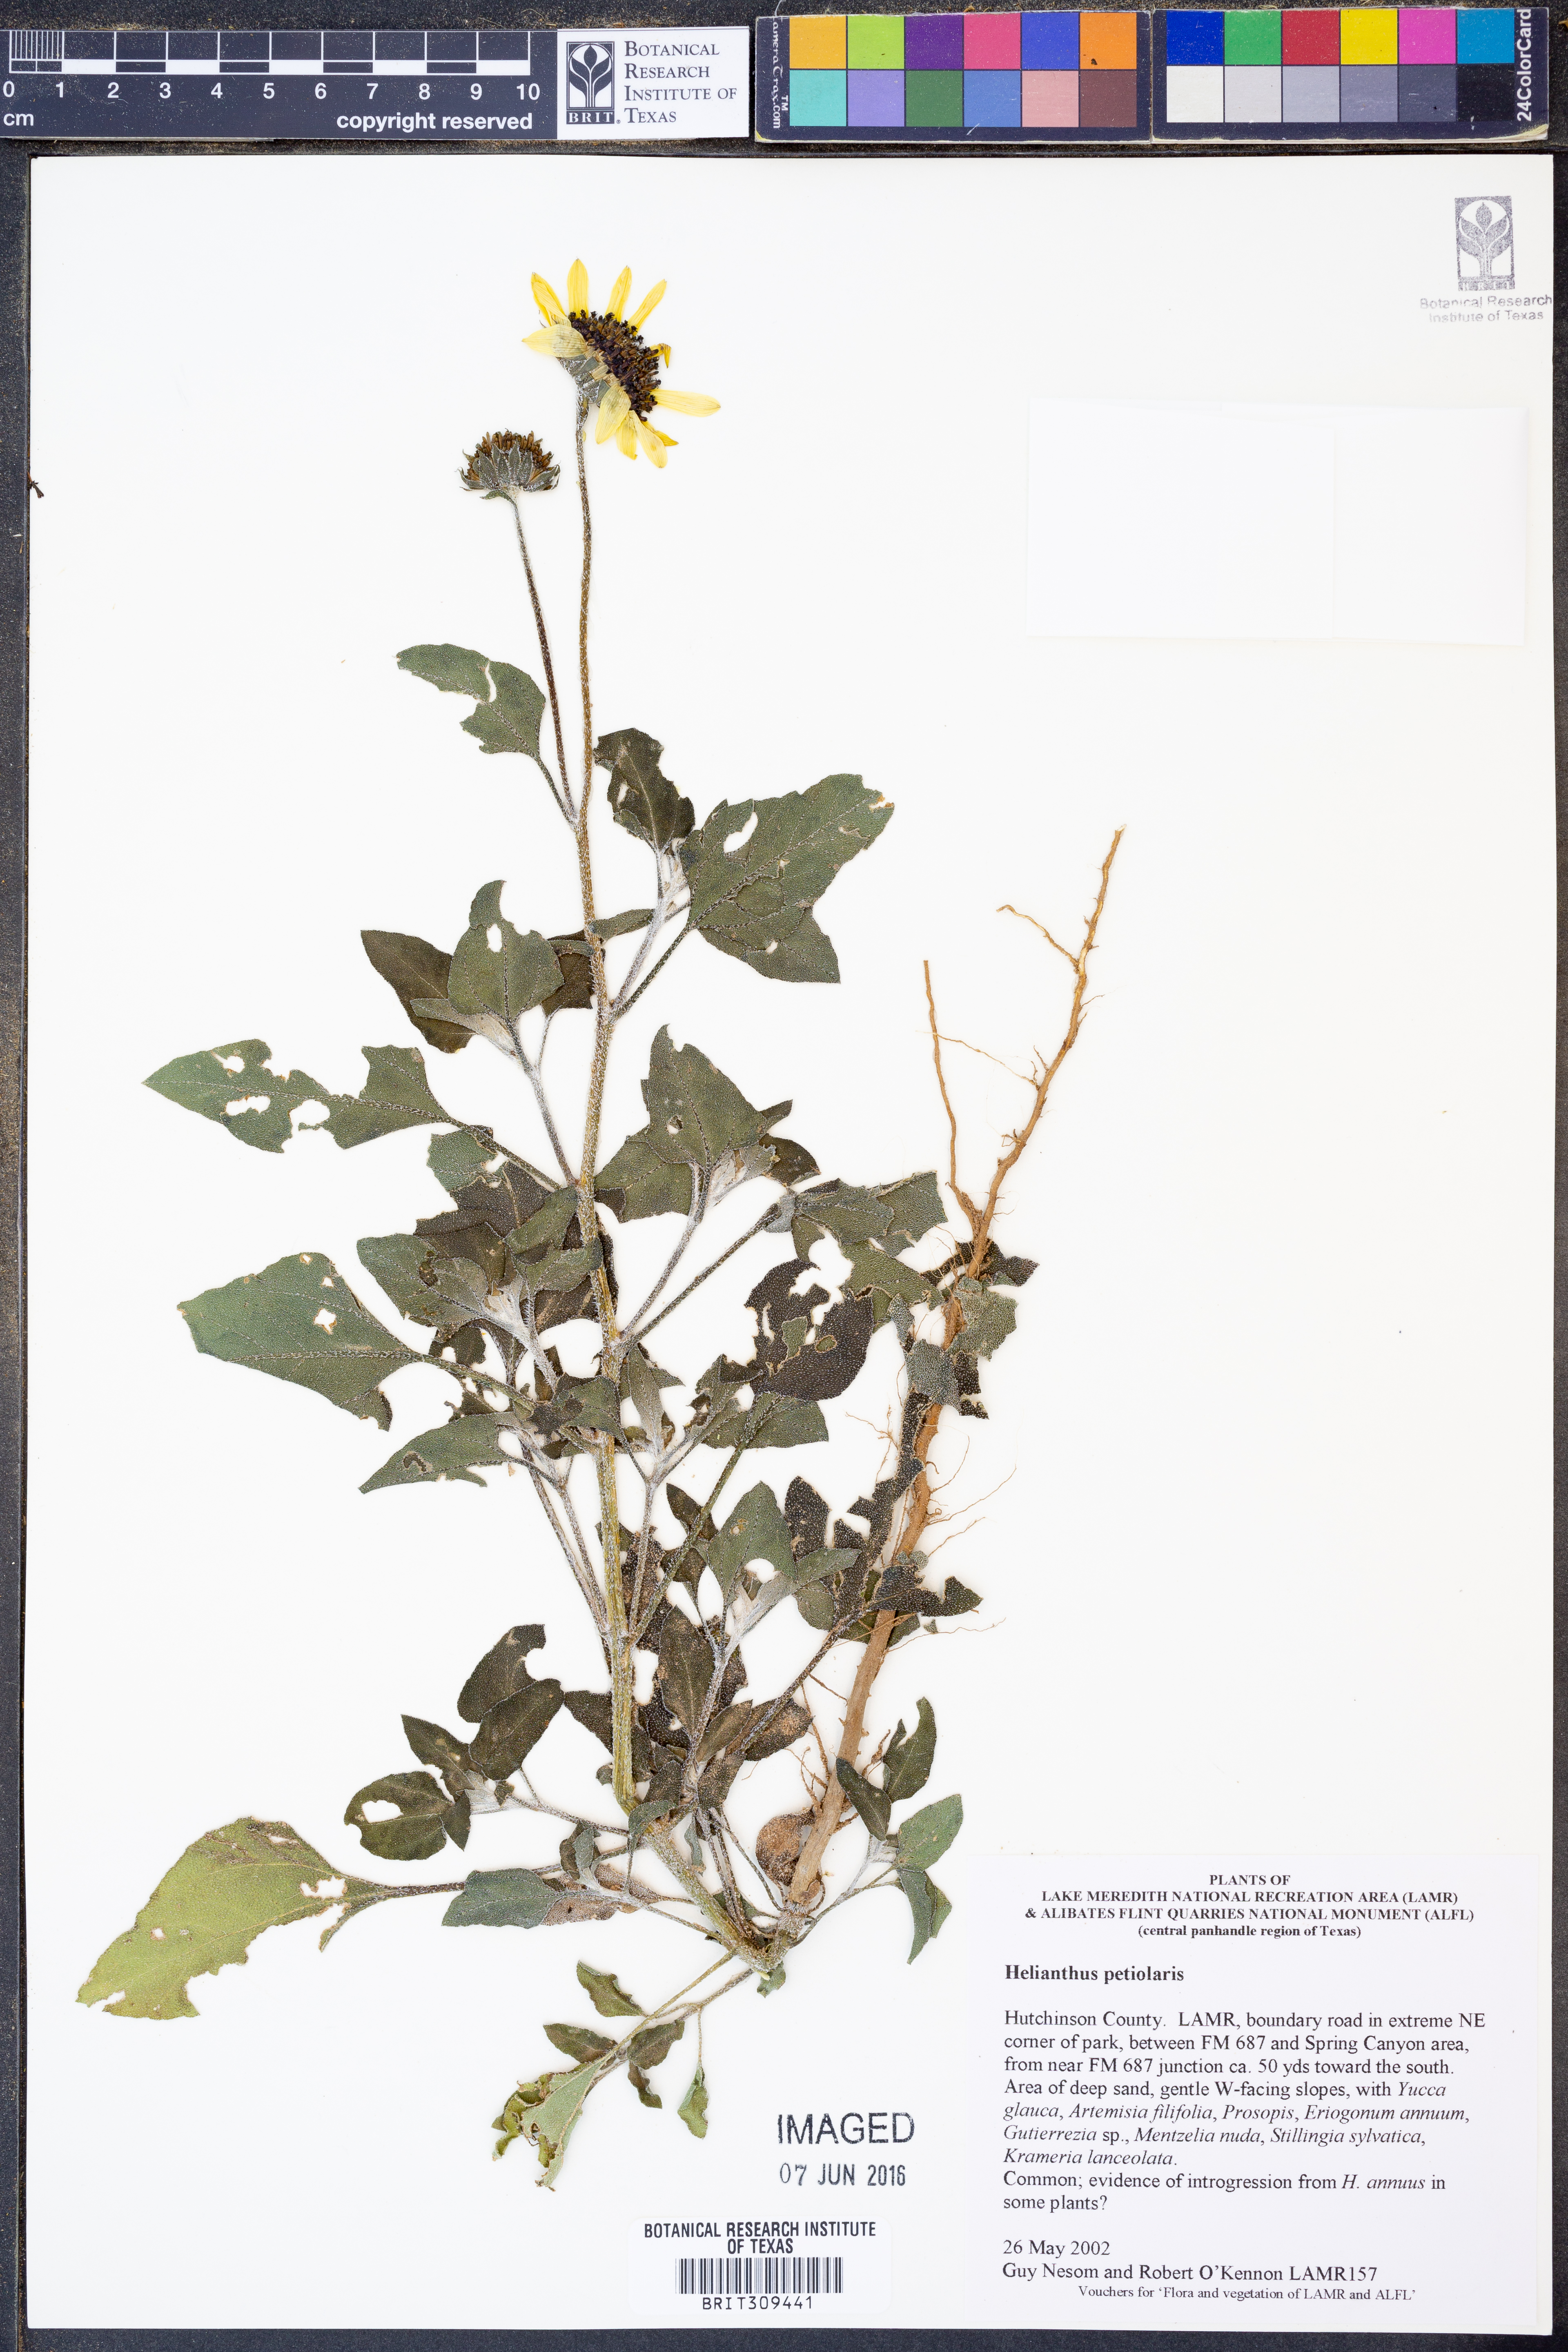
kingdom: Plantae
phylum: Tracheophyta
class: Magnoliopsida
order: Asterales
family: Asteraceae
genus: Helianthus
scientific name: Helianthus petiolaris
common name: Lesser sunflower
